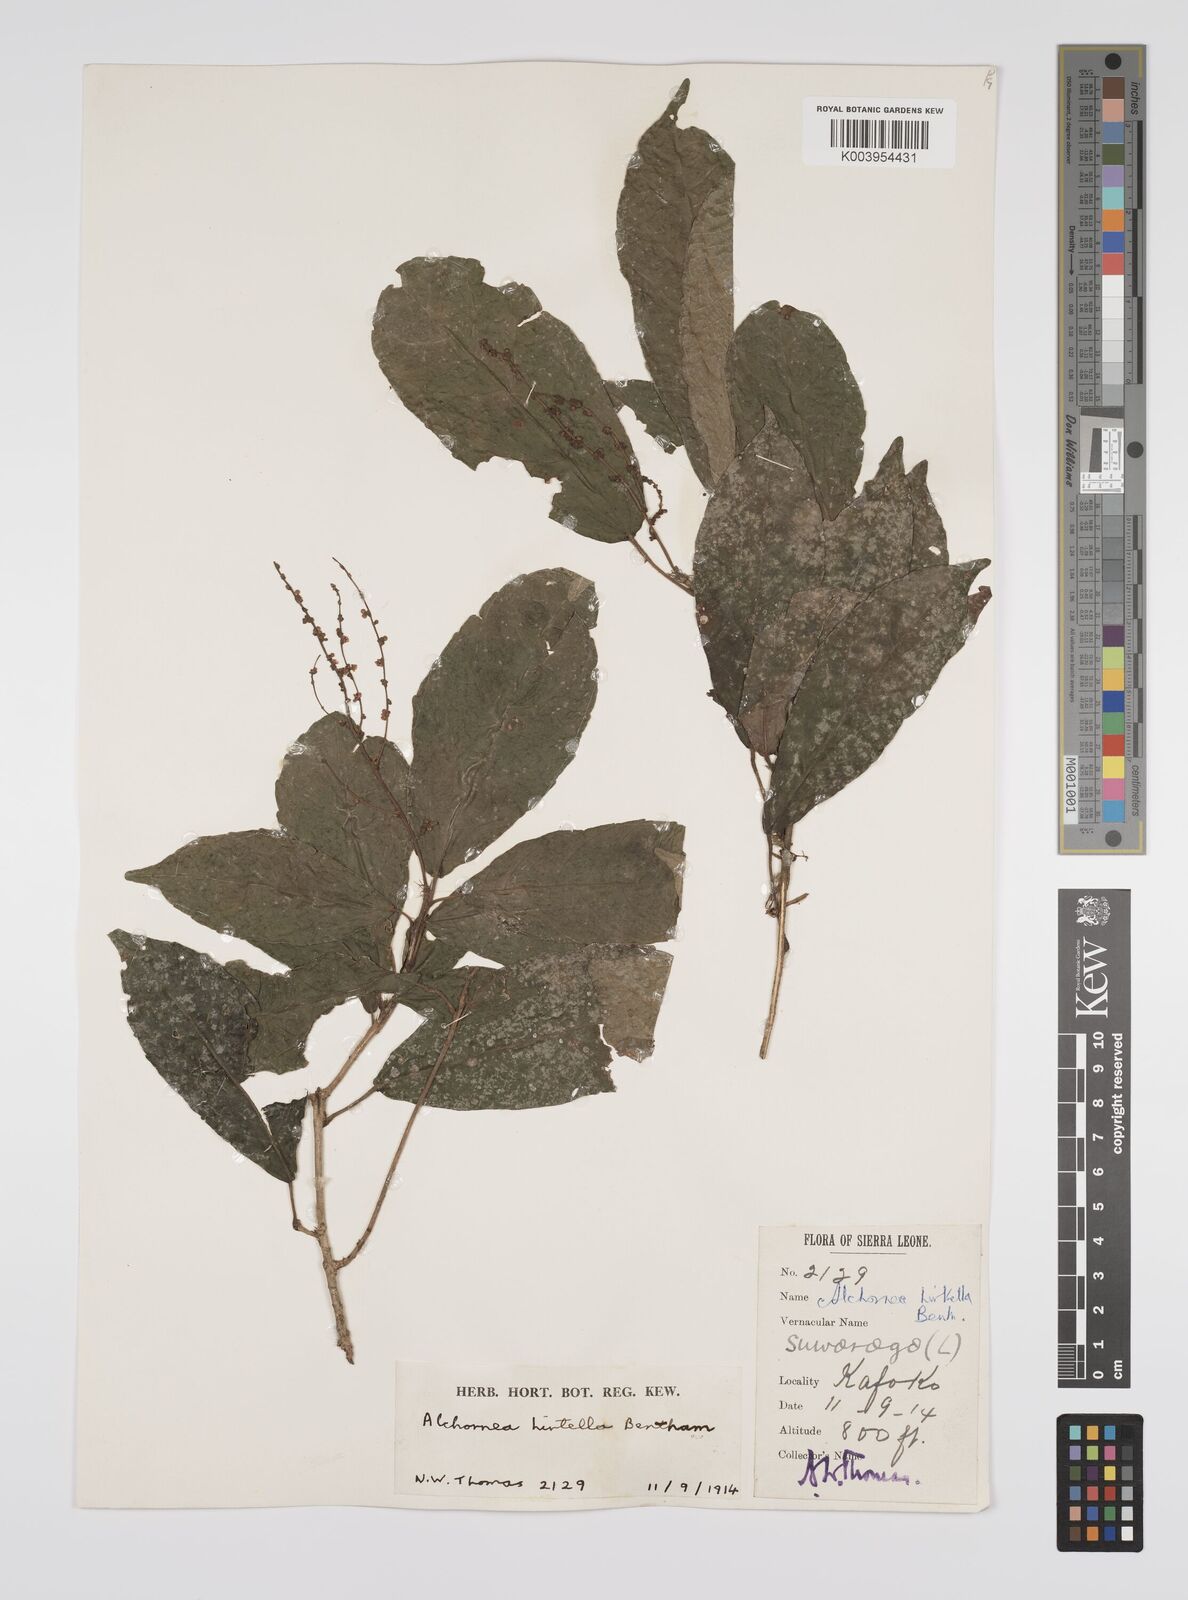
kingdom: Plantae
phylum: Tracheophyta
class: Magnoliopsida
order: Malpighiales
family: Euphorbiaceae
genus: Alchornea
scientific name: Alchornea hirtella
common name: Forest bead-string
